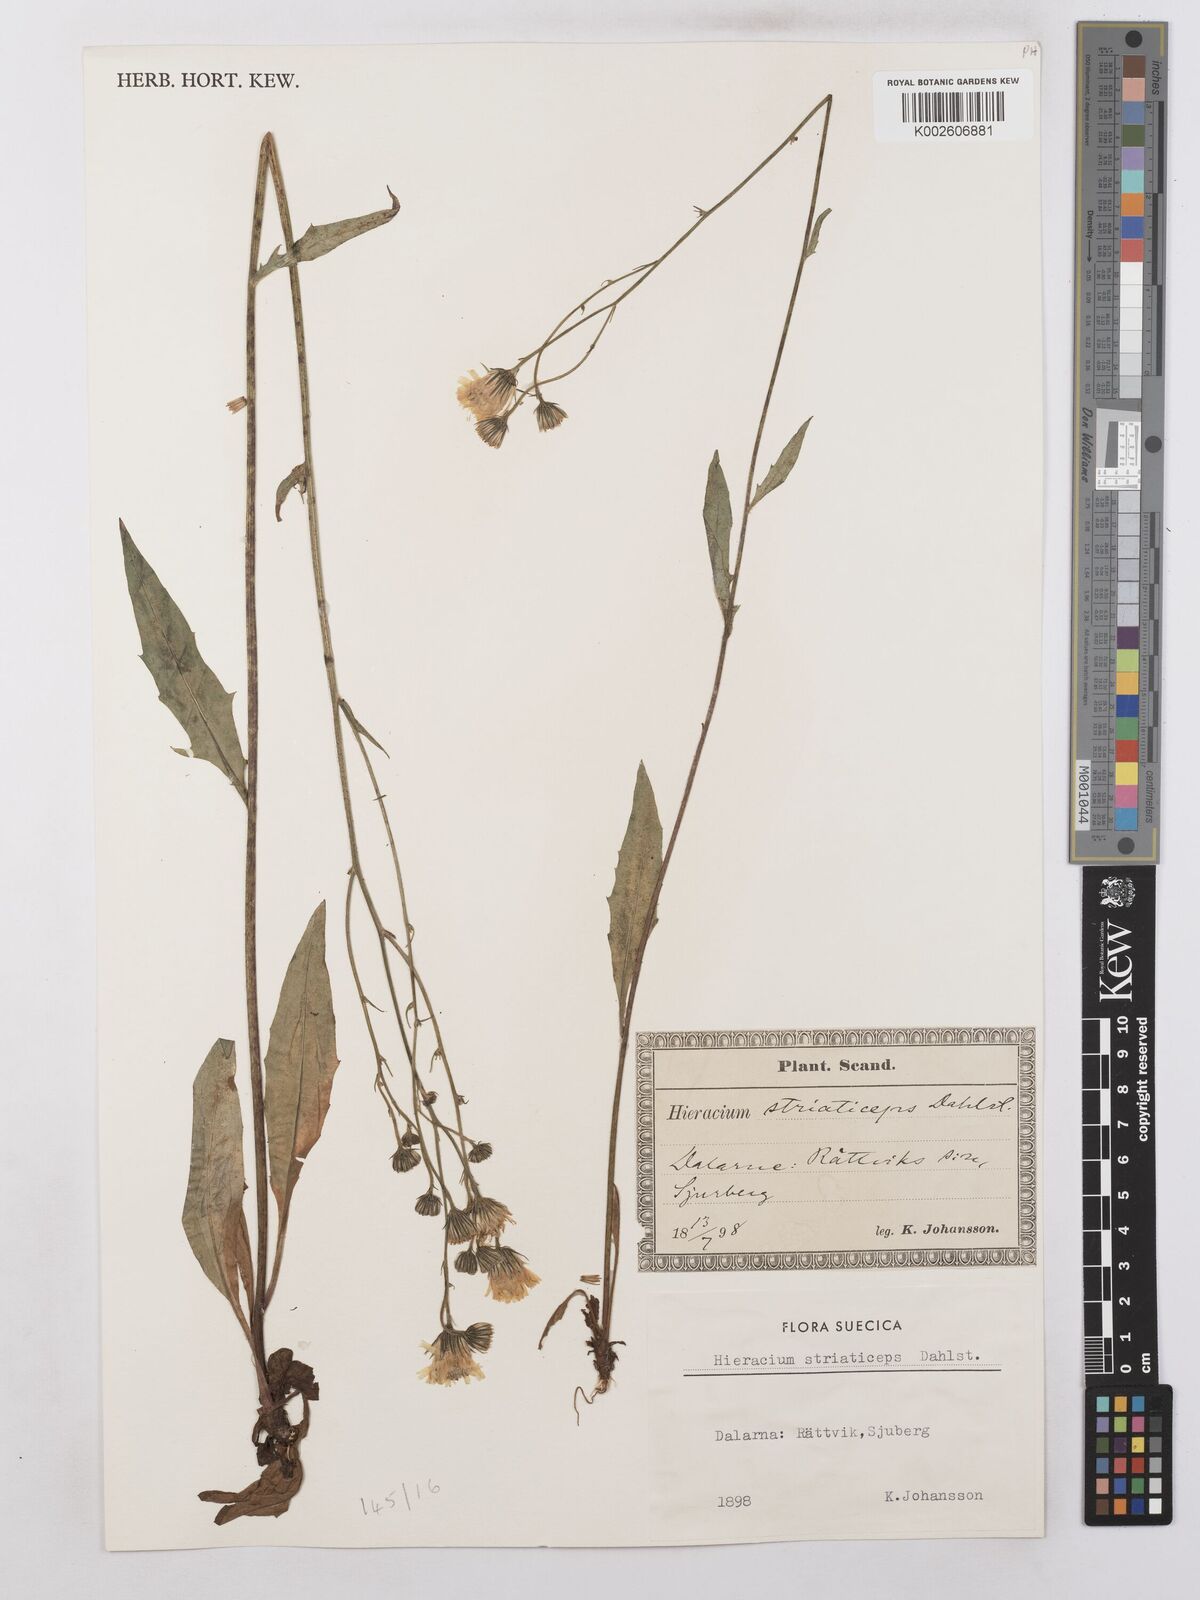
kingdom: Plantae
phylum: Tracheophyta
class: Magnoliopsida
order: Asterales
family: Asteraceae
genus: Hieracium
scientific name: Hieracium levicaule
